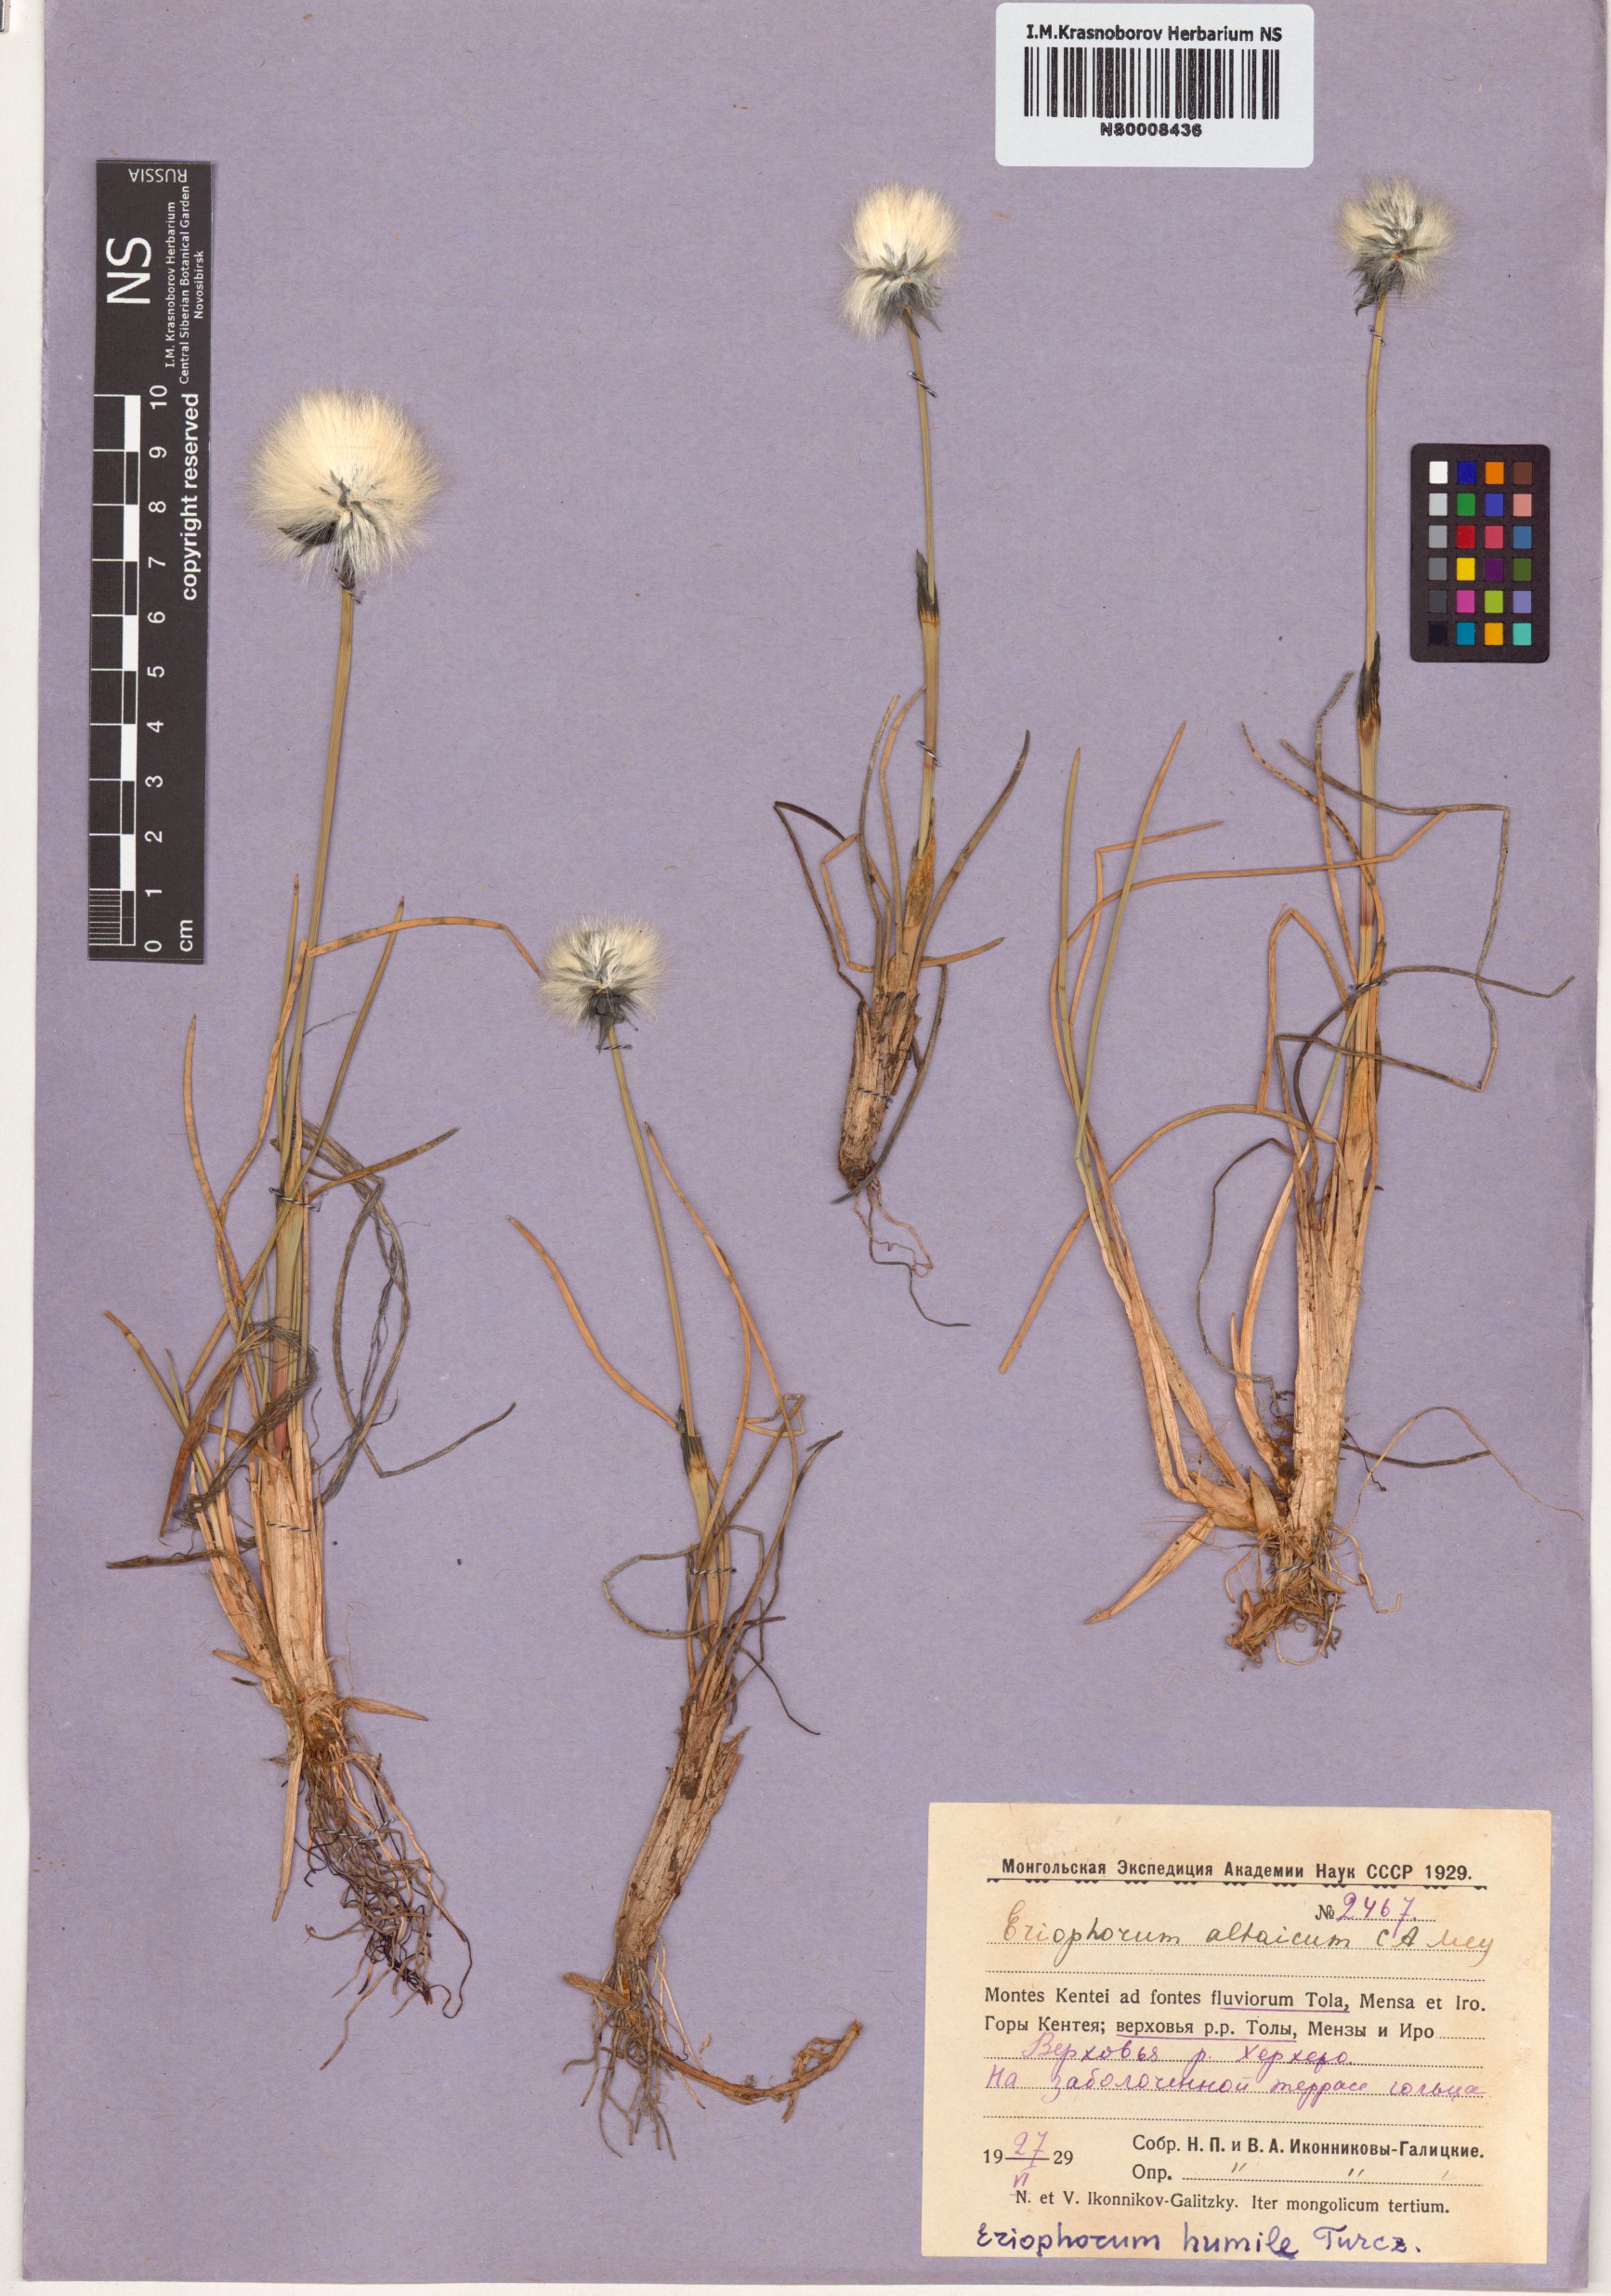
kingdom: Plantae
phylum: Tracheophyta
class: Liliopsida
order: Poales
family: Cyperaceae
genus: Eriophorum
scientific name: Eriophorum humile
